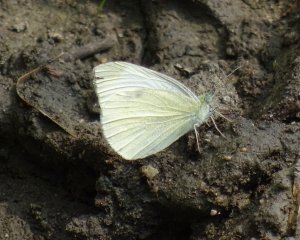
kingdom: Animalia
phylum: Arthropoda
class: Insecta
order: Lepidoptera
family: Pieridae
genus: Pieris
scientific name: Pieris rapae
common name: Cabbage White
